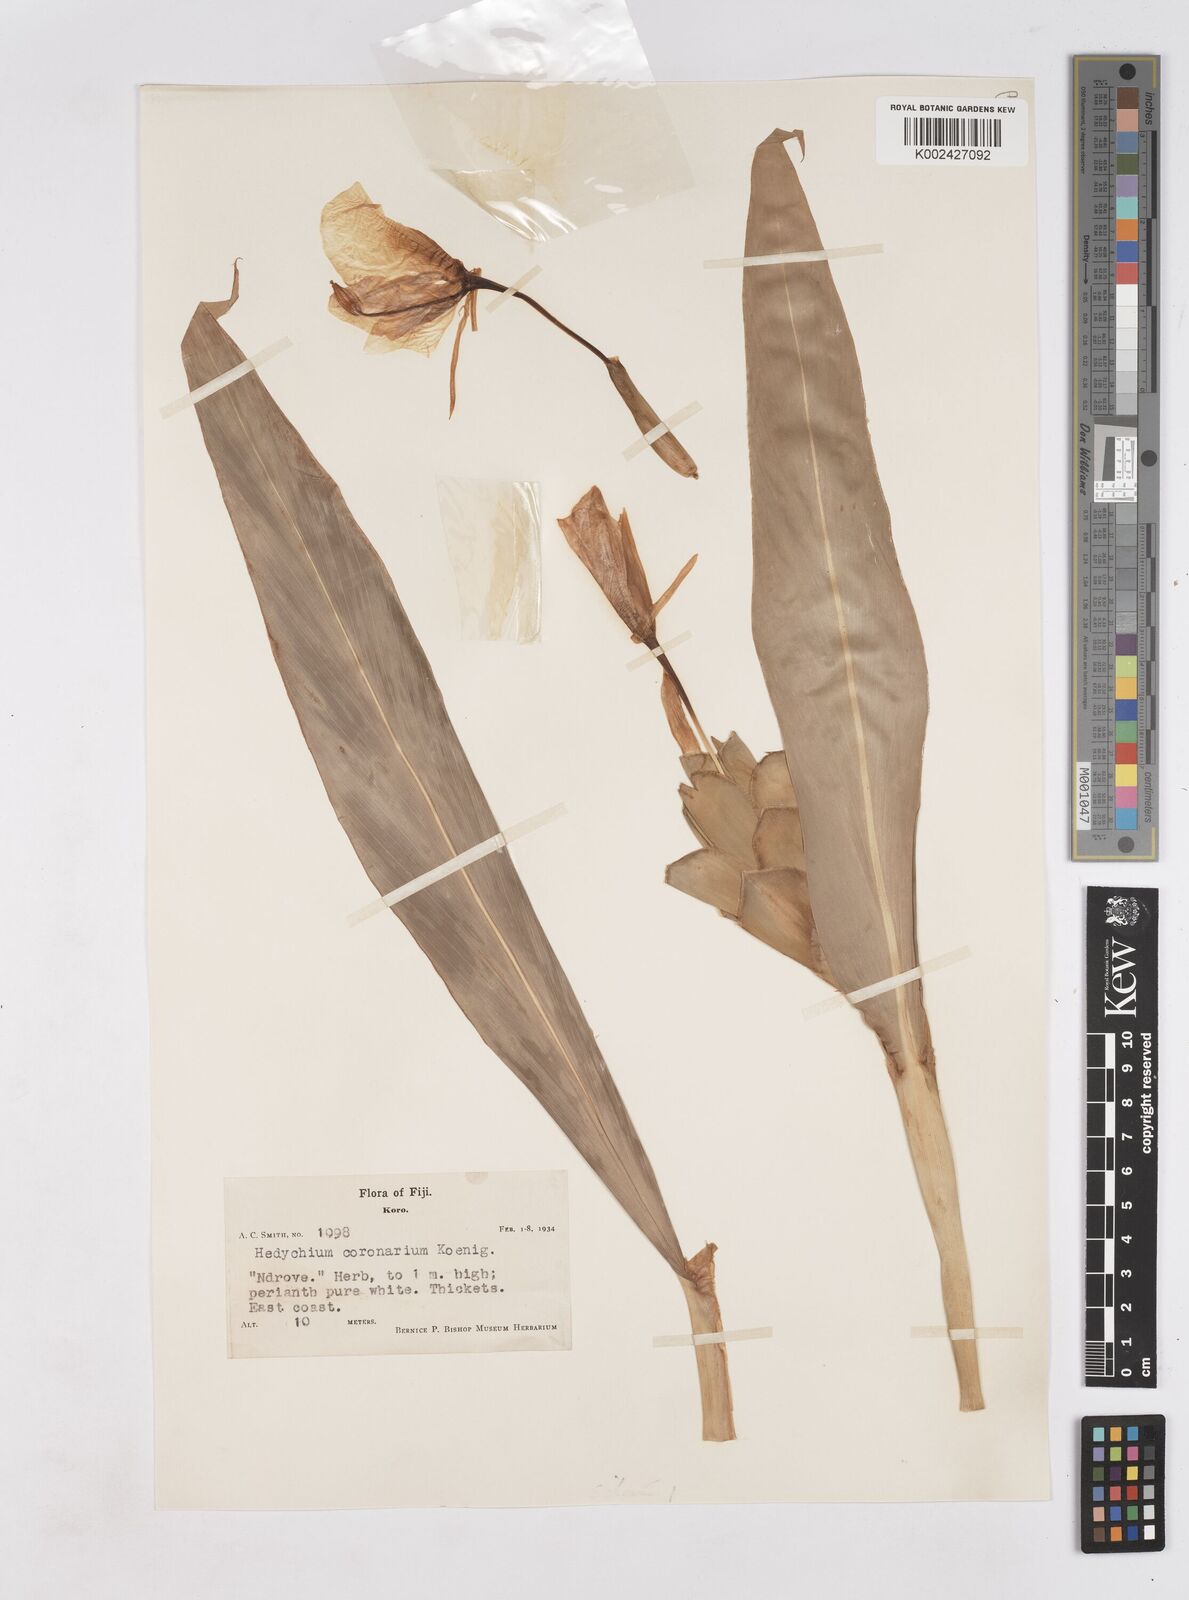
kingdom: Plantae
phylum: Tracheophyta
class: Liliopsida
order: Zingiberales
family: Zingiberaceae
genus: Hedychium
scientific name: Hedychium coronarium
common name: White garland-lily
